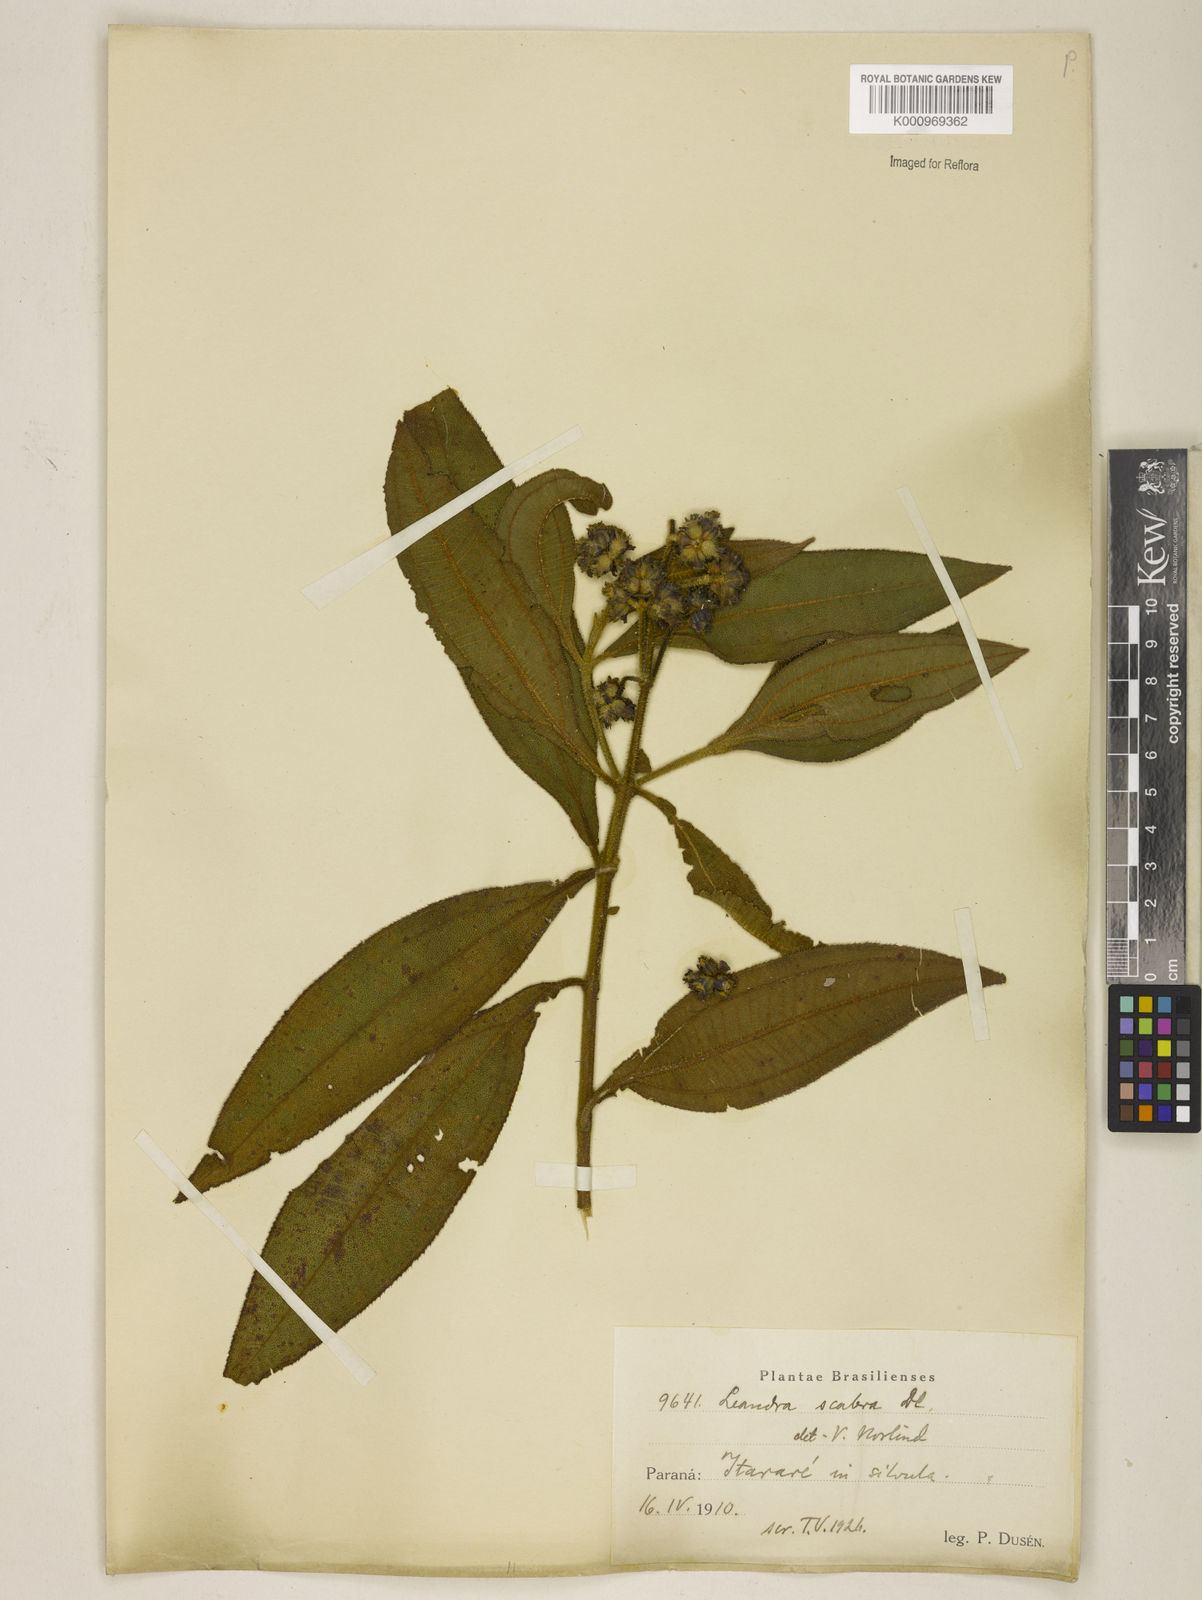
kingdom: Plantae
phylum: Tracheophyta
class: Magnoliopsida
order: Myrtales
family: Melastomataceae
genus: Miconia
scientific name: Miconia melastomoides
